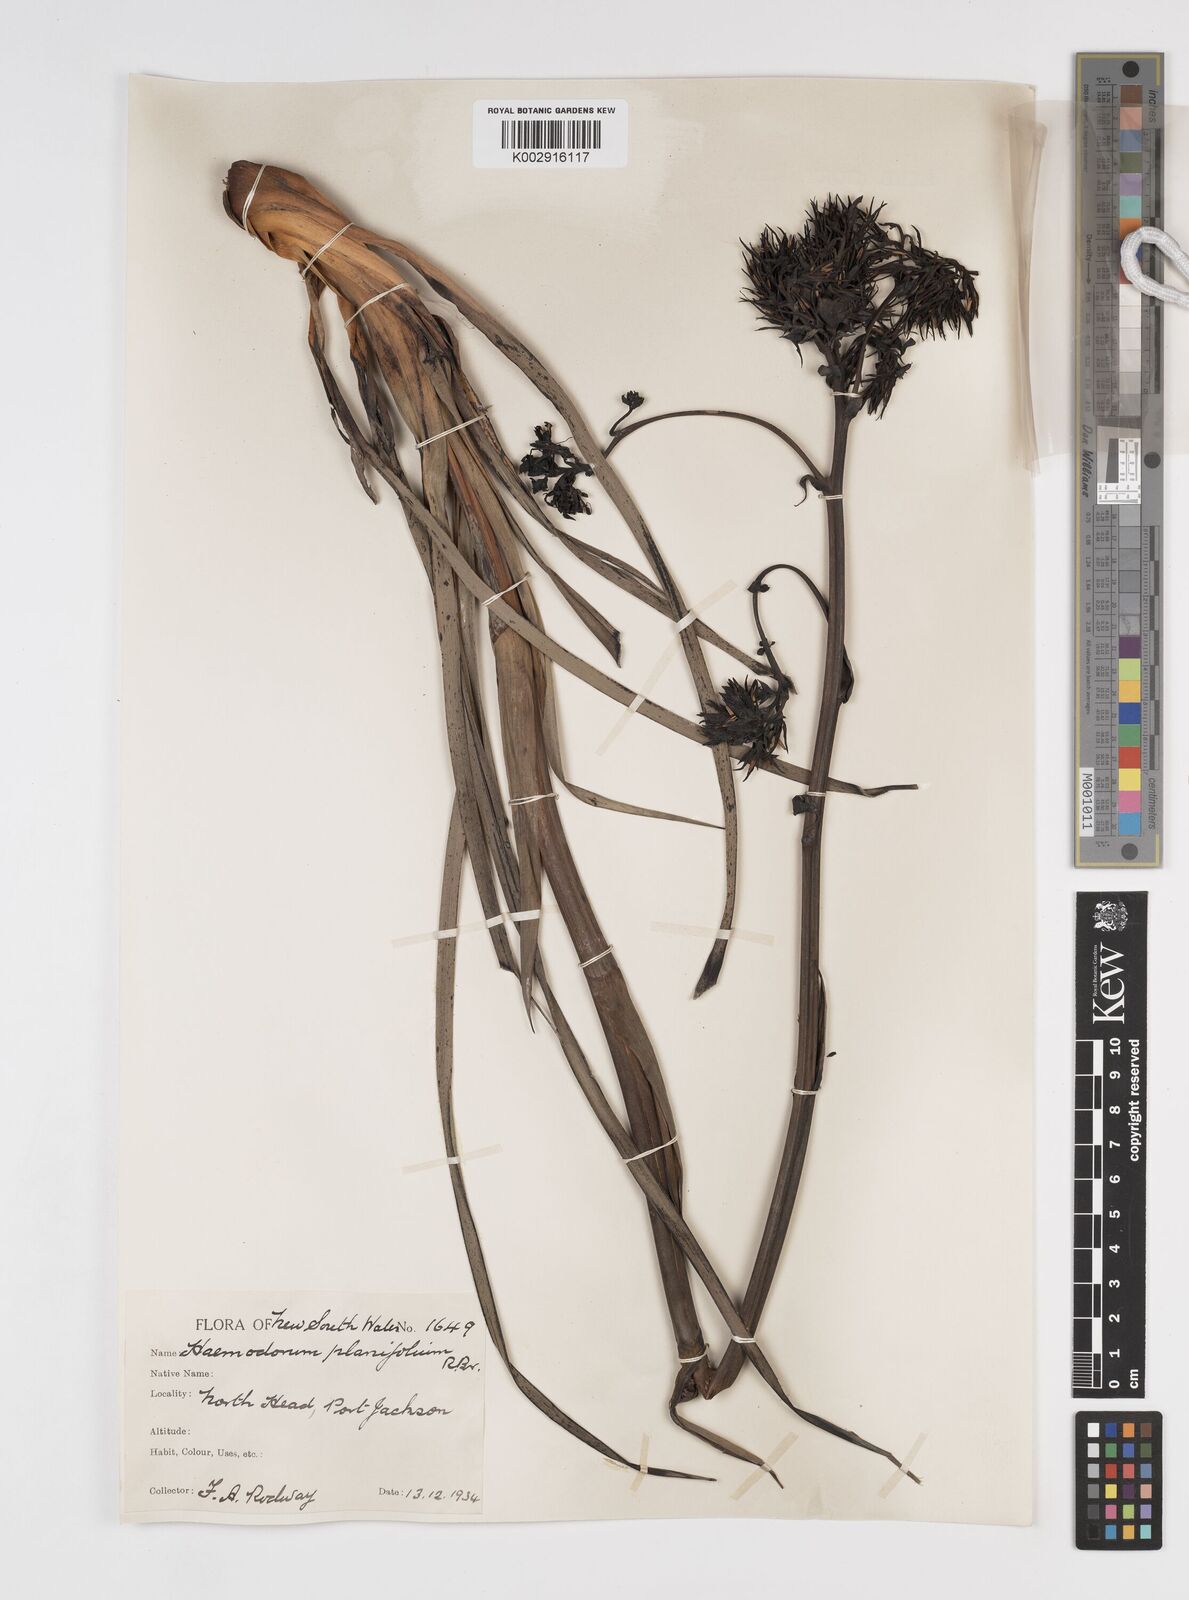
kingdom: Plantae
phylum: Tracheophyta
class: Liliopsida
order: Commelinales
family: Haemodoraceae
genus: Haemodorum
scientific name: Haemodorum planifolium
